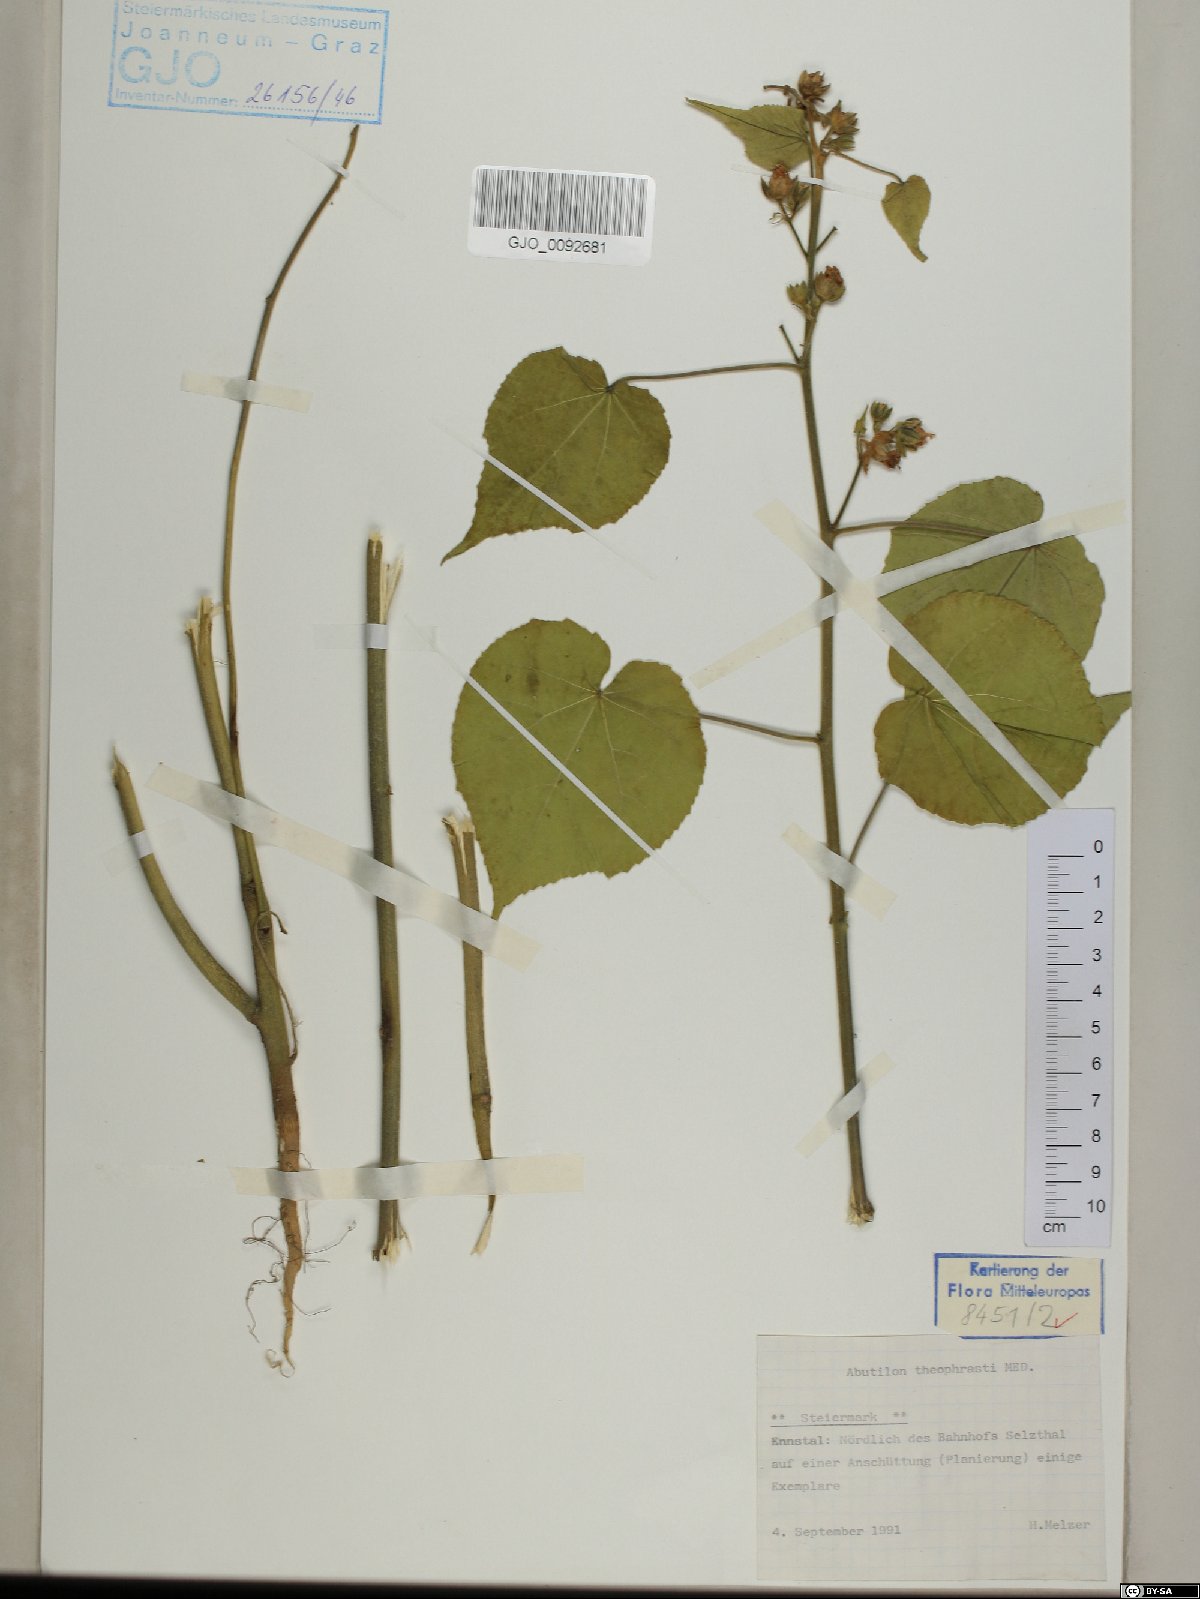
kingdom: Plantae
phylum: Tracheophyta
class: Magnoliopsida
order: Malvales
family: Malvaceae
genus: Abutilon
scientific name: Abutilon theophrasti
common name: Velvetleaf
